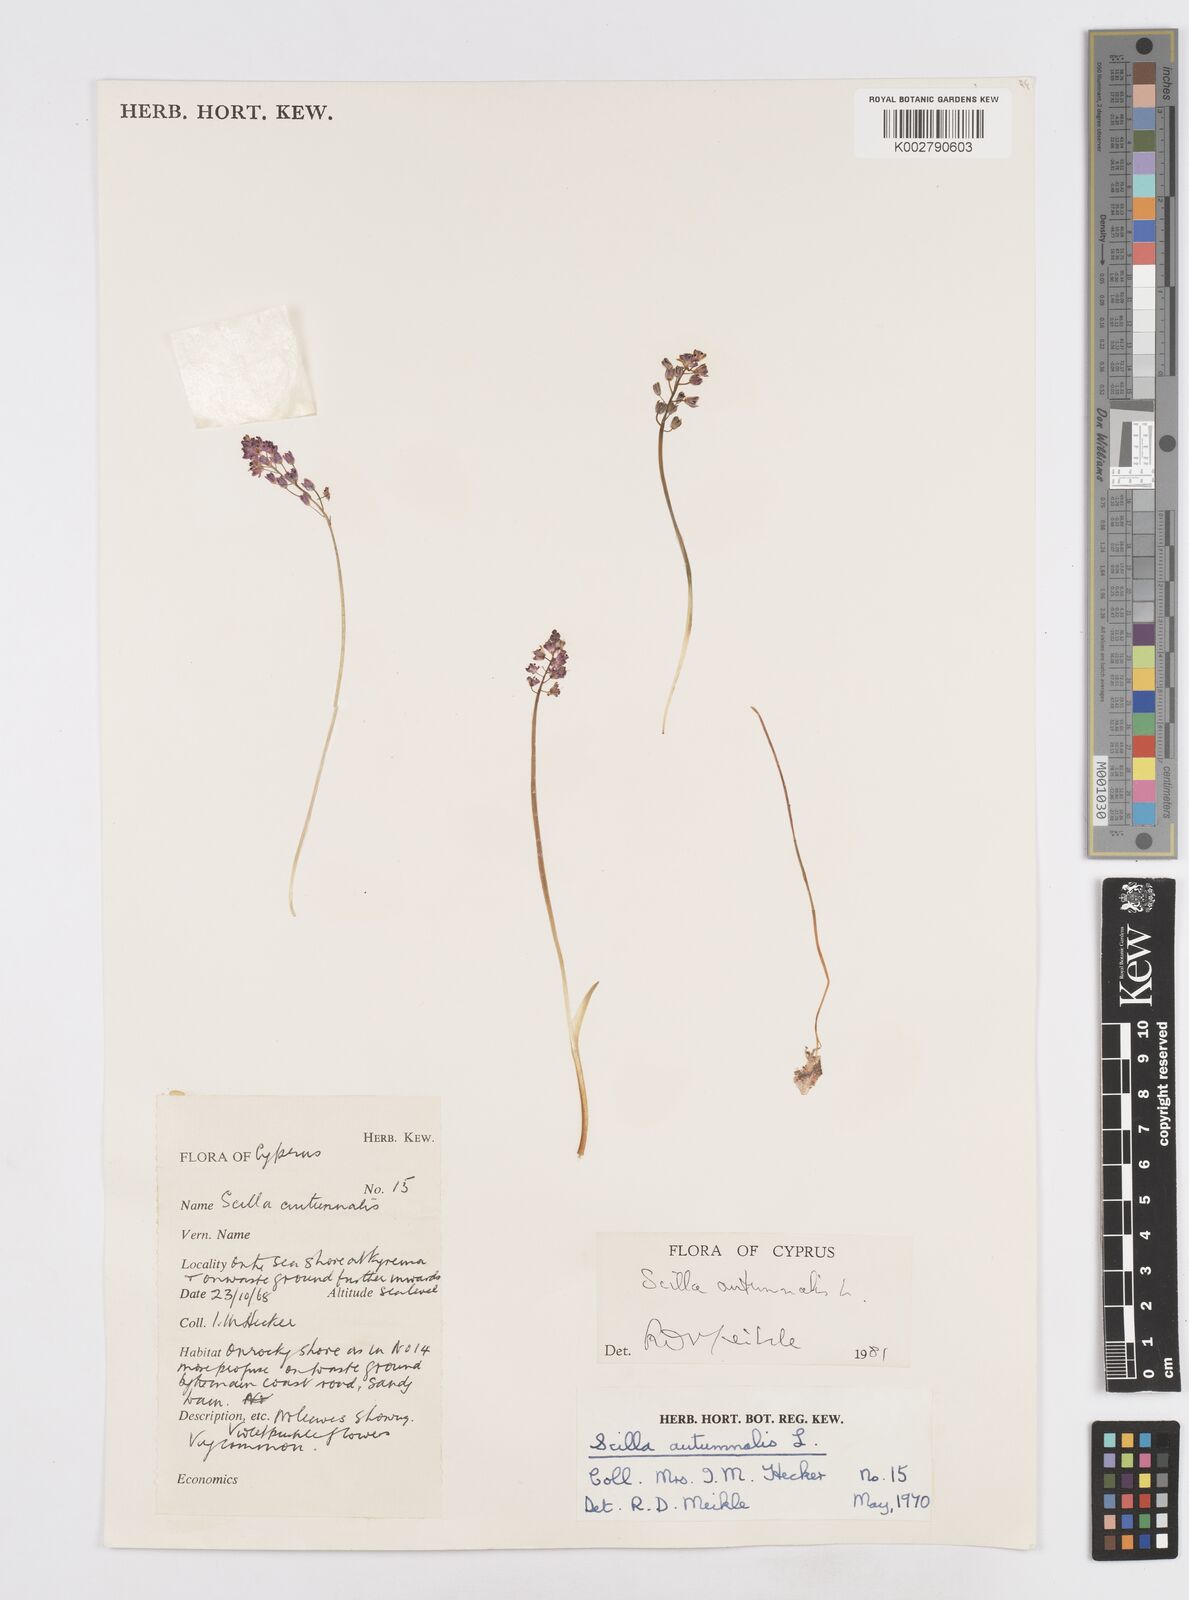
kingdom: Plantae
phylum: Tracheophyta
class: Liliopsida
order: Asparagales
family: Asparagaceae
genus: Prospero
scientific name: Prospero autumnale
